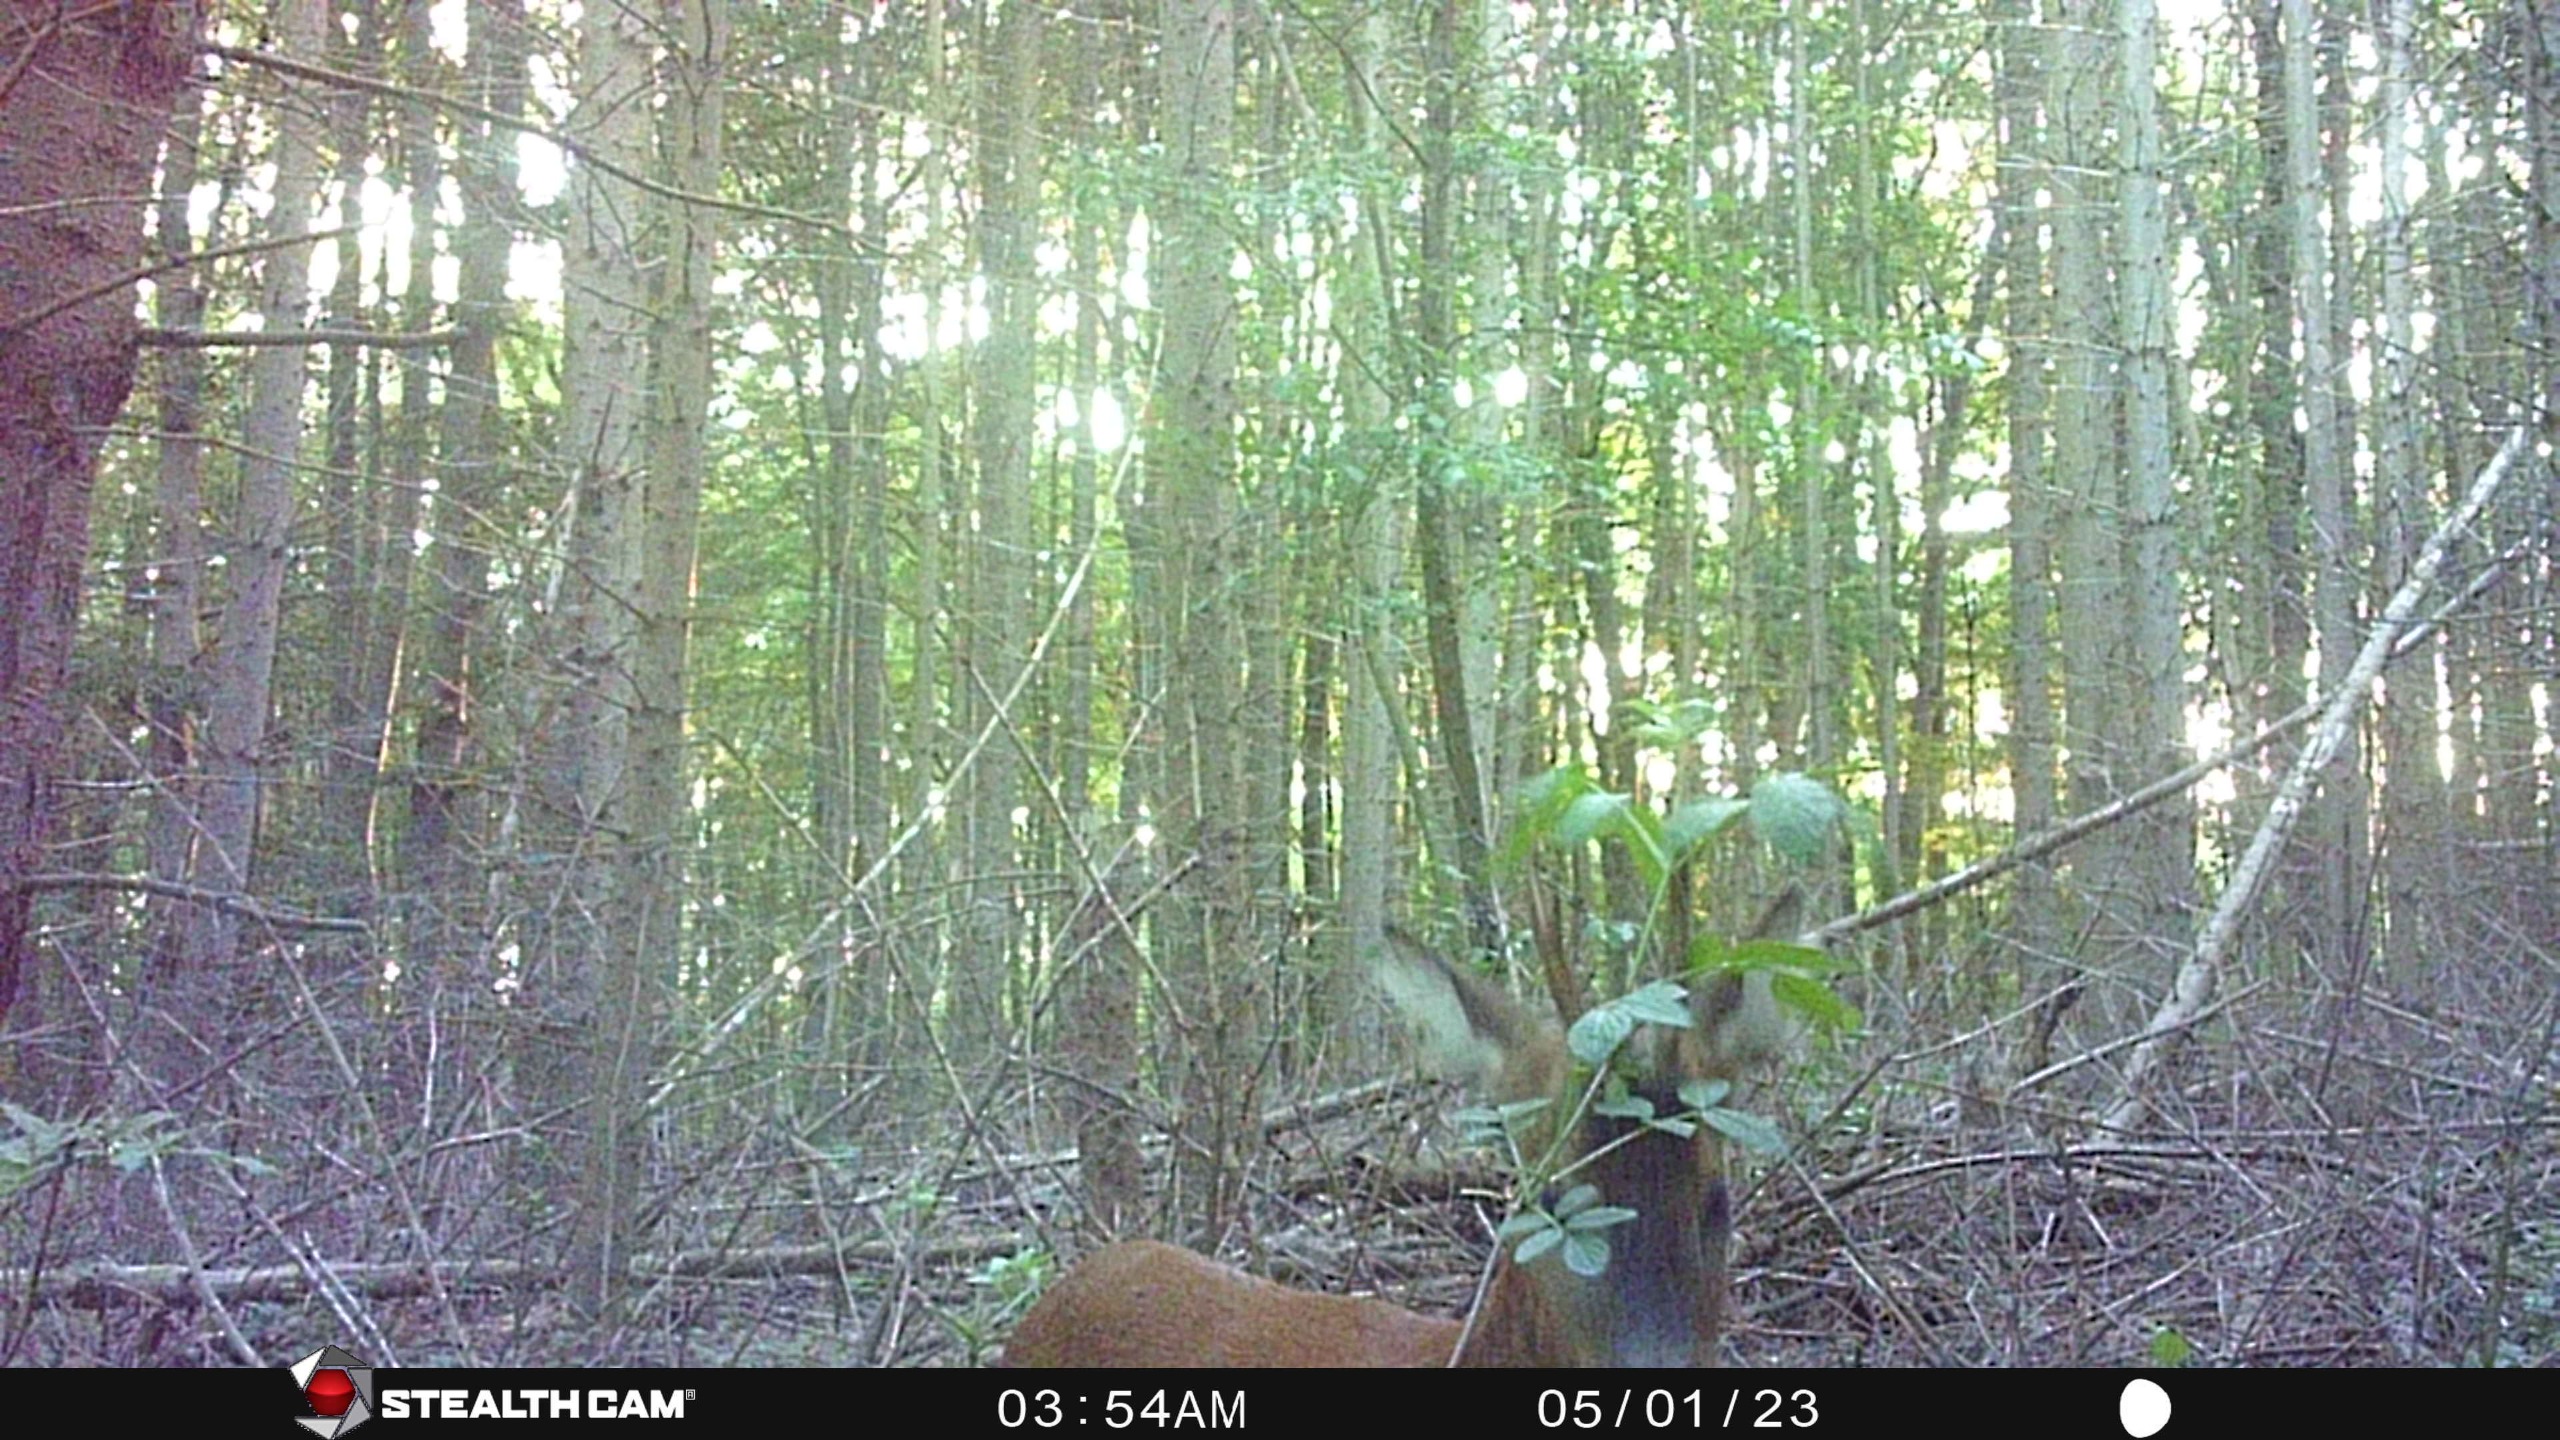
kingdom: Animalia
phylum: Chordata
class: Mammalia
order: Artiodactyla
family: Cervidae
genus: Capreolus
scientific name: Capreolus capreolus
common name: Rådyr
